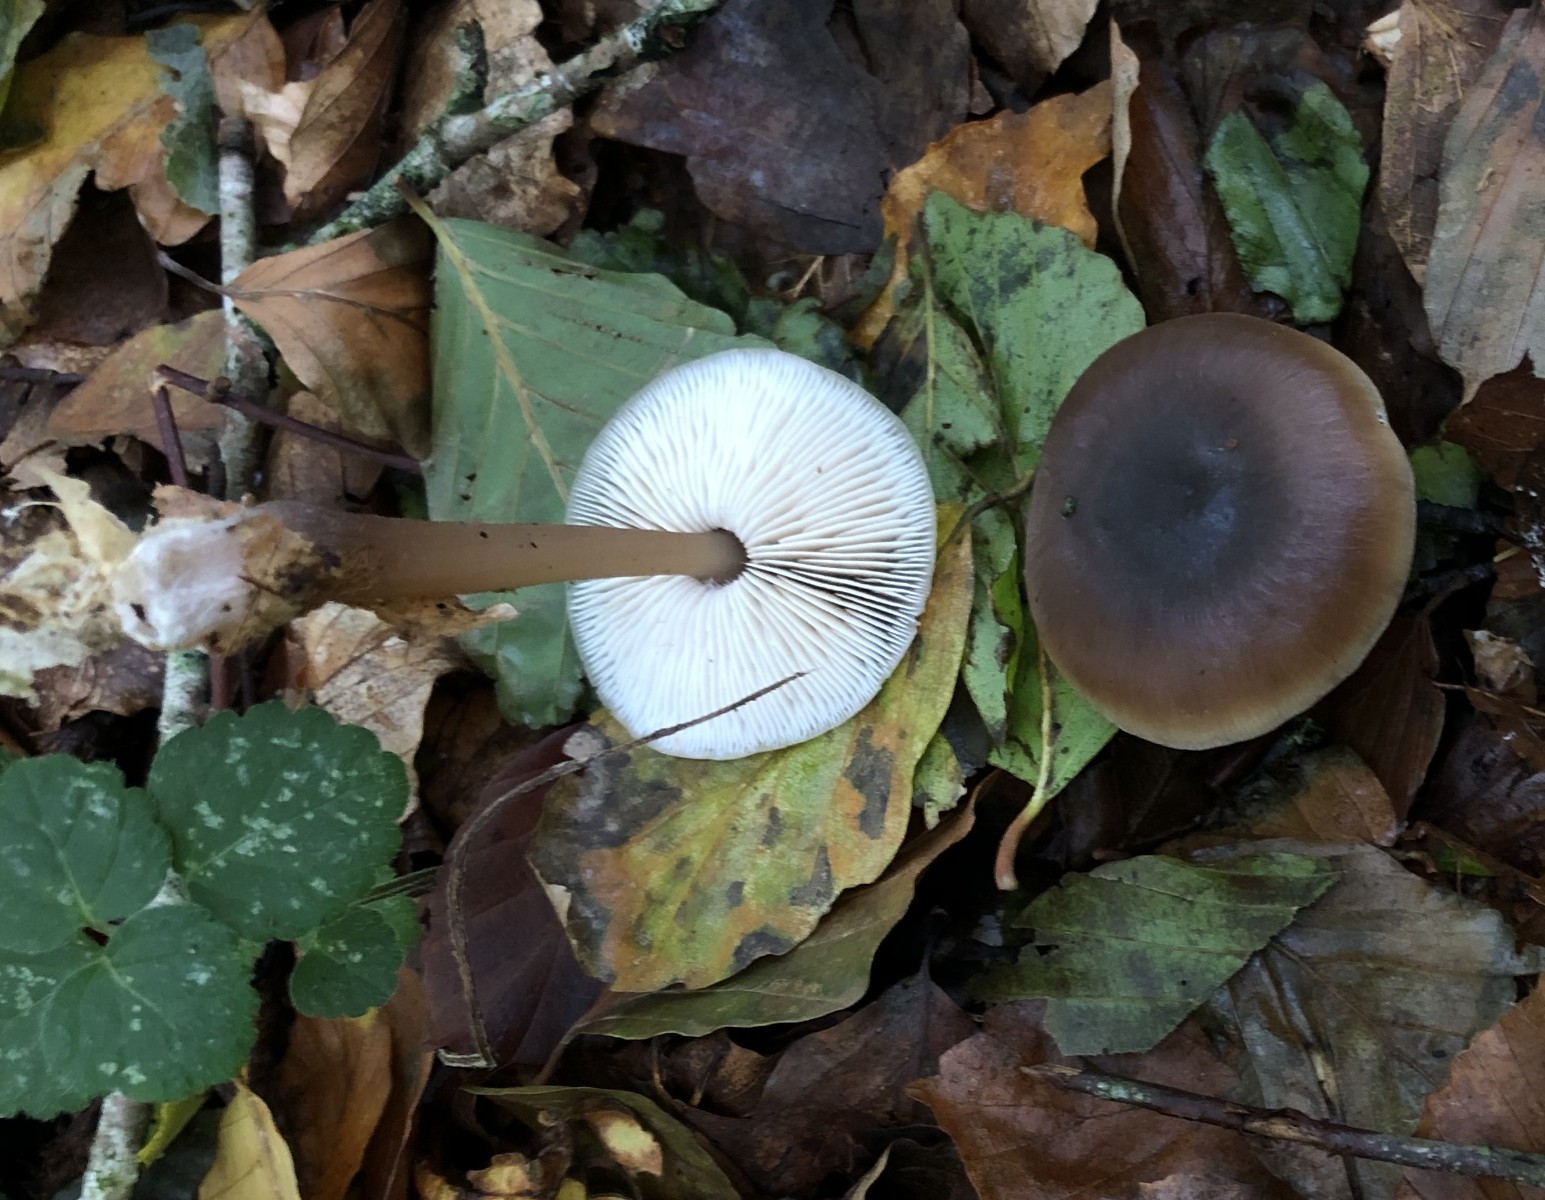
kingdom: Fungi
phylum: Basidiomycota
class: Agaricomycetes
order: Agaricales
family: Omphalotaceae
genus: Rhodocollybia
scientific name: Rhodocollybia butyracea
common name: keglestokket fladhat
